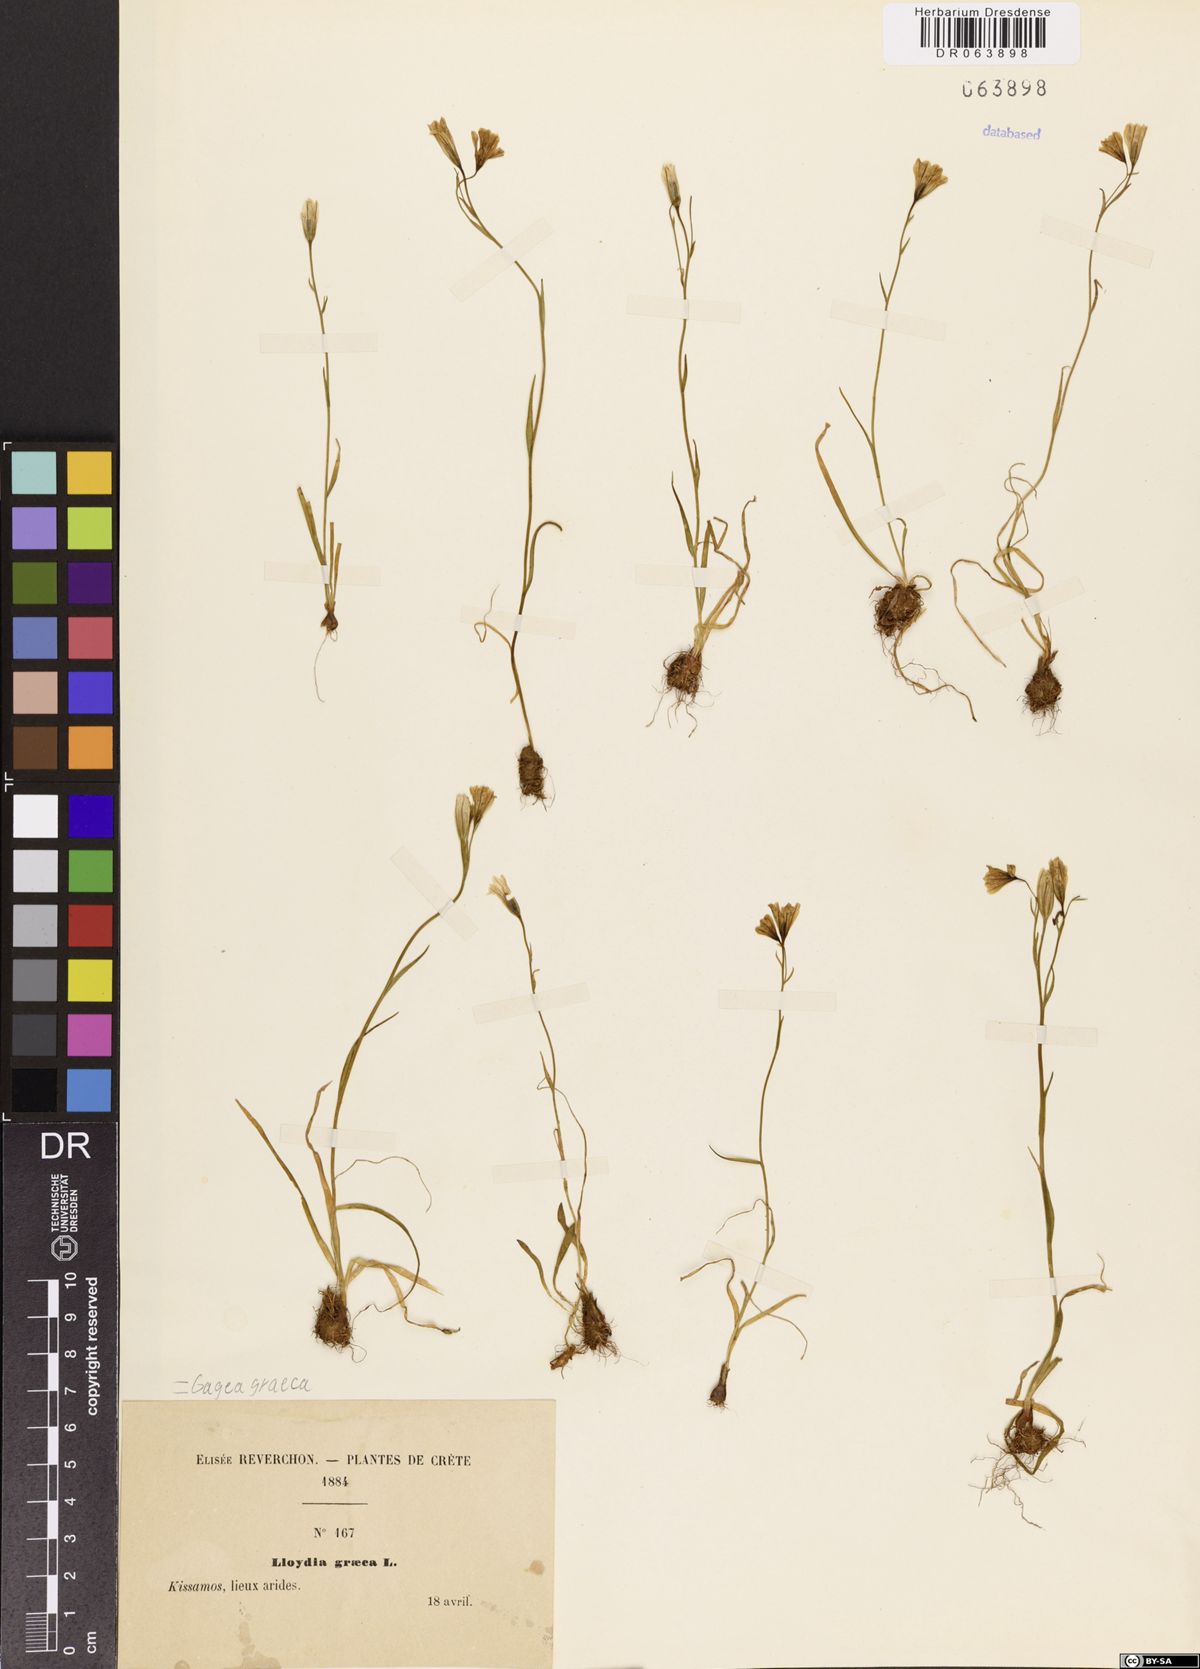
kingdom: Plantae
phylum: Tracheophyta
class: Liliopsida
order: Liliales
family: Liliaceae
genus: Gagea
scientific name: Gagea graeca
